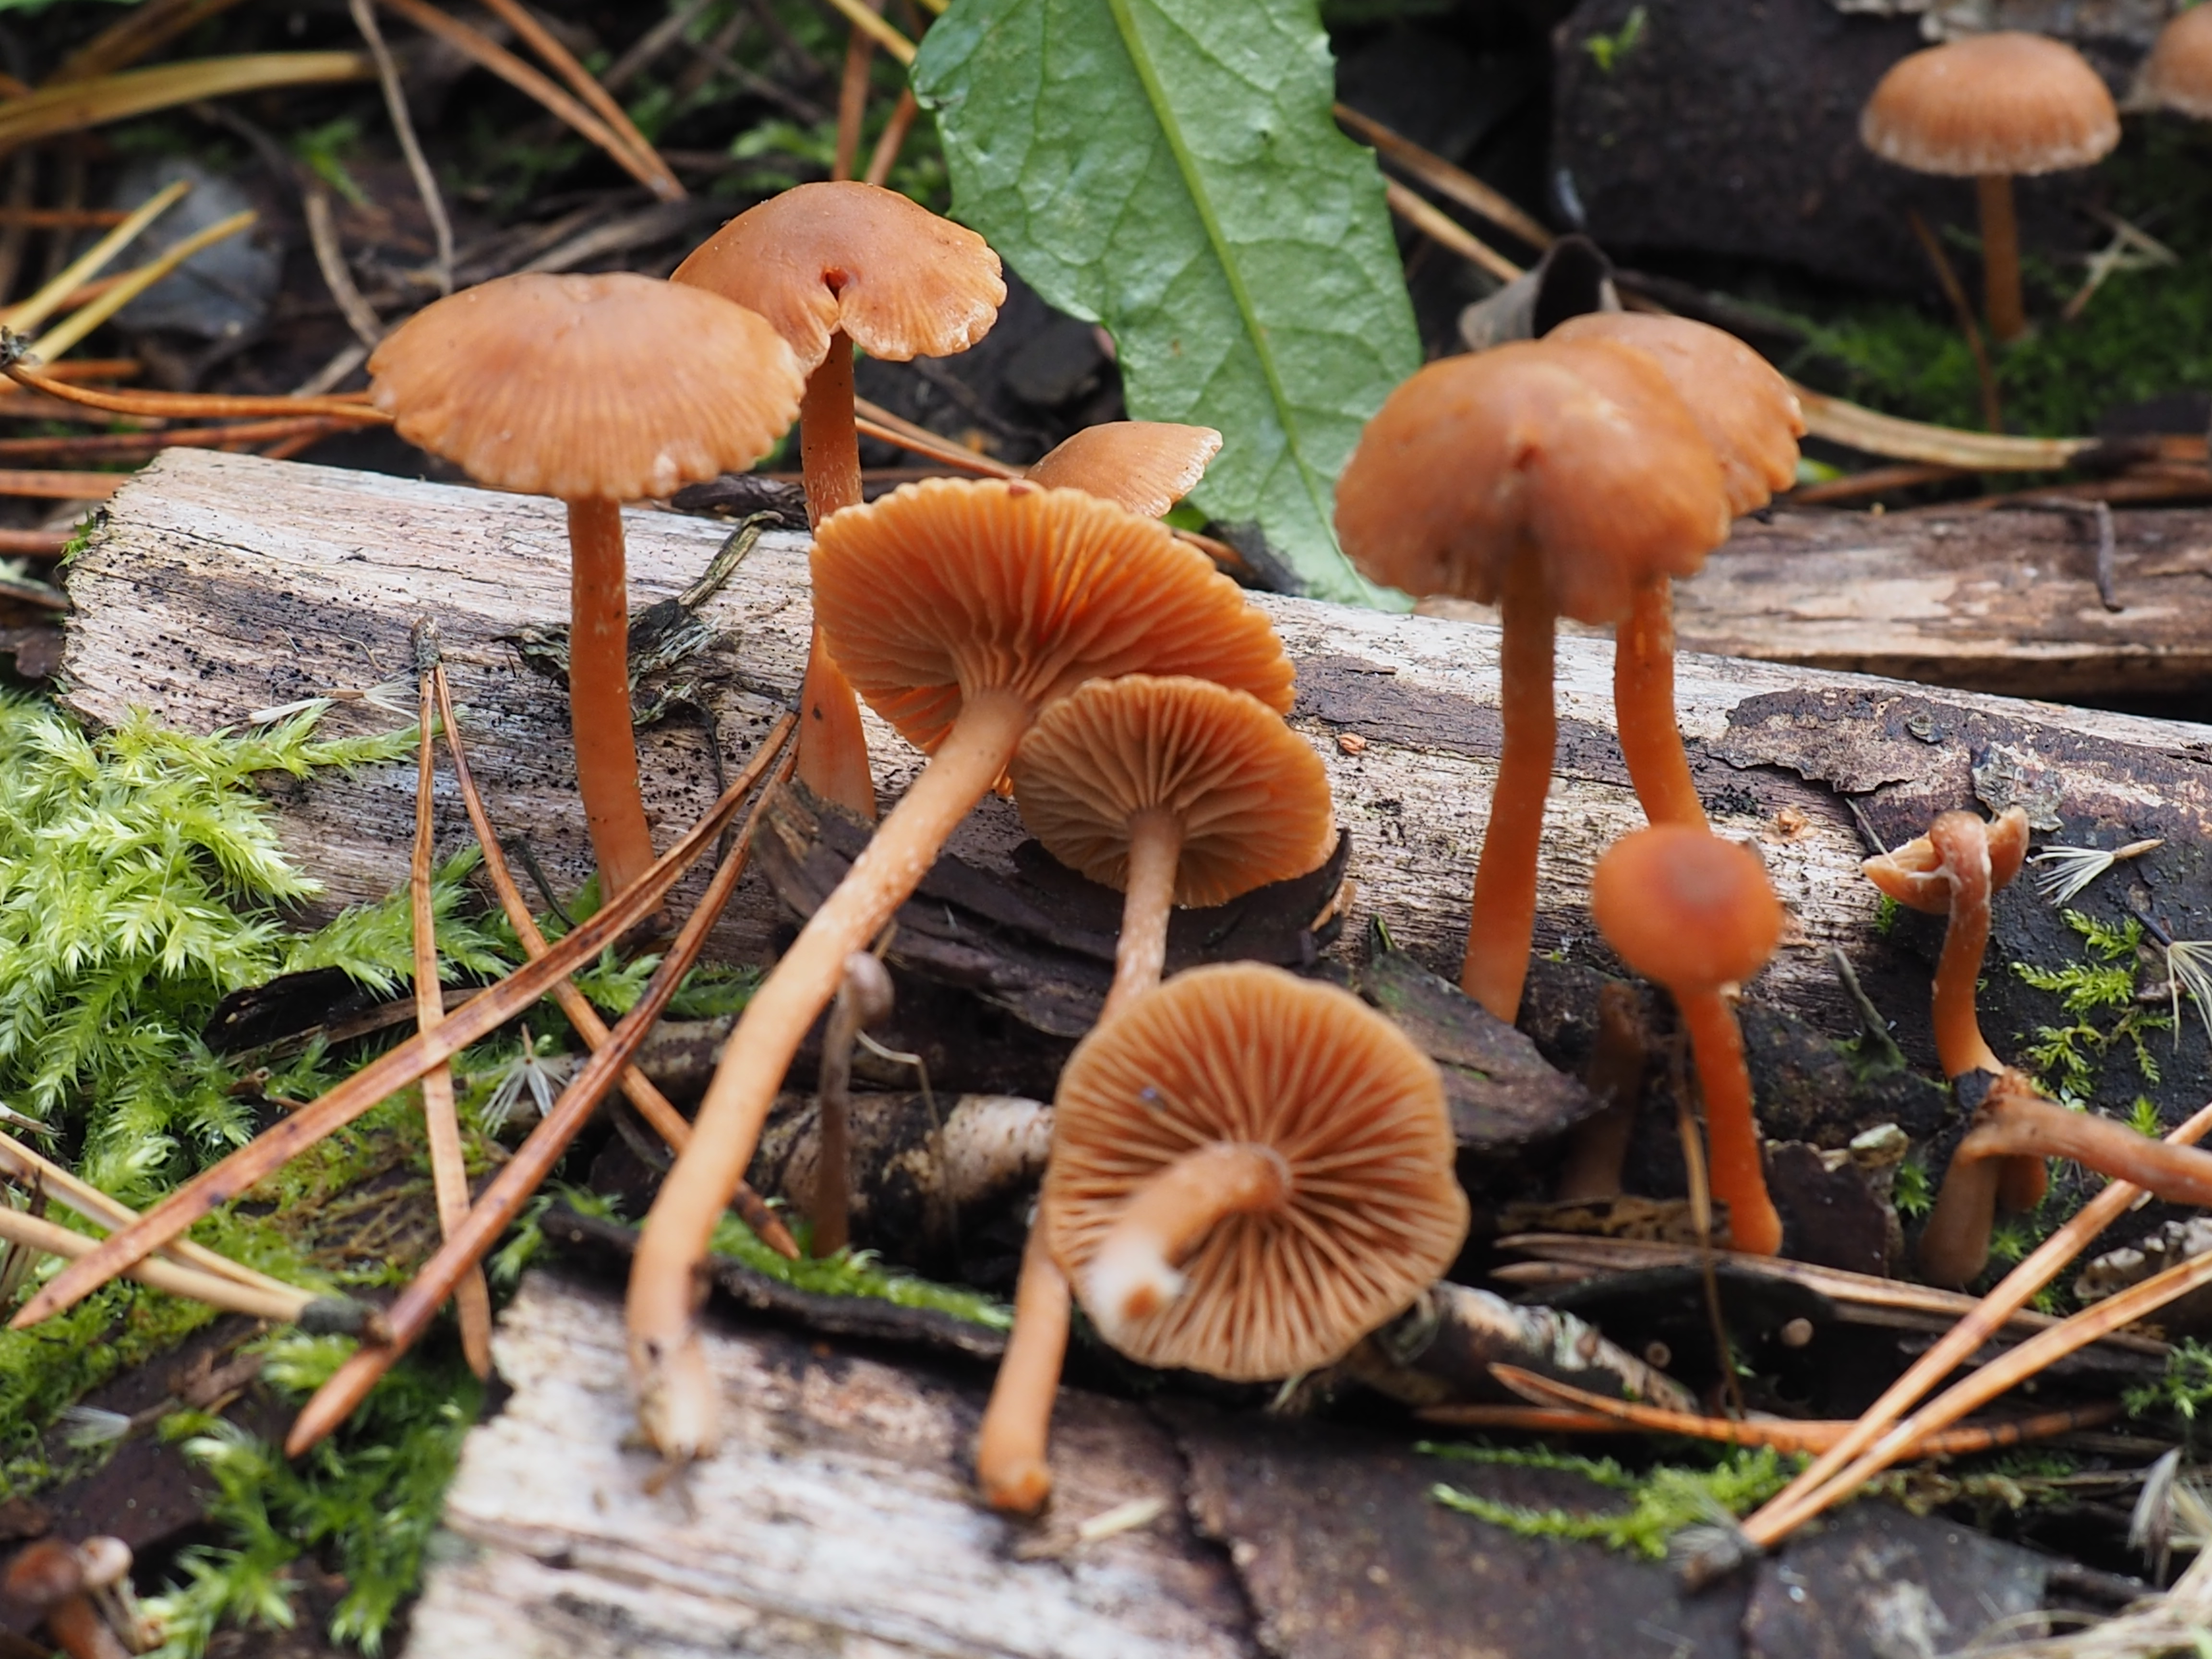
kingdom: Fungi
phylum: Basidiomycota
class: Agaricomycetes
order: Agaricales
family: Tubariaceae
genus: Tubaria
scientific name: Tubaria furfuracea
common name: Scurfy twiglet
